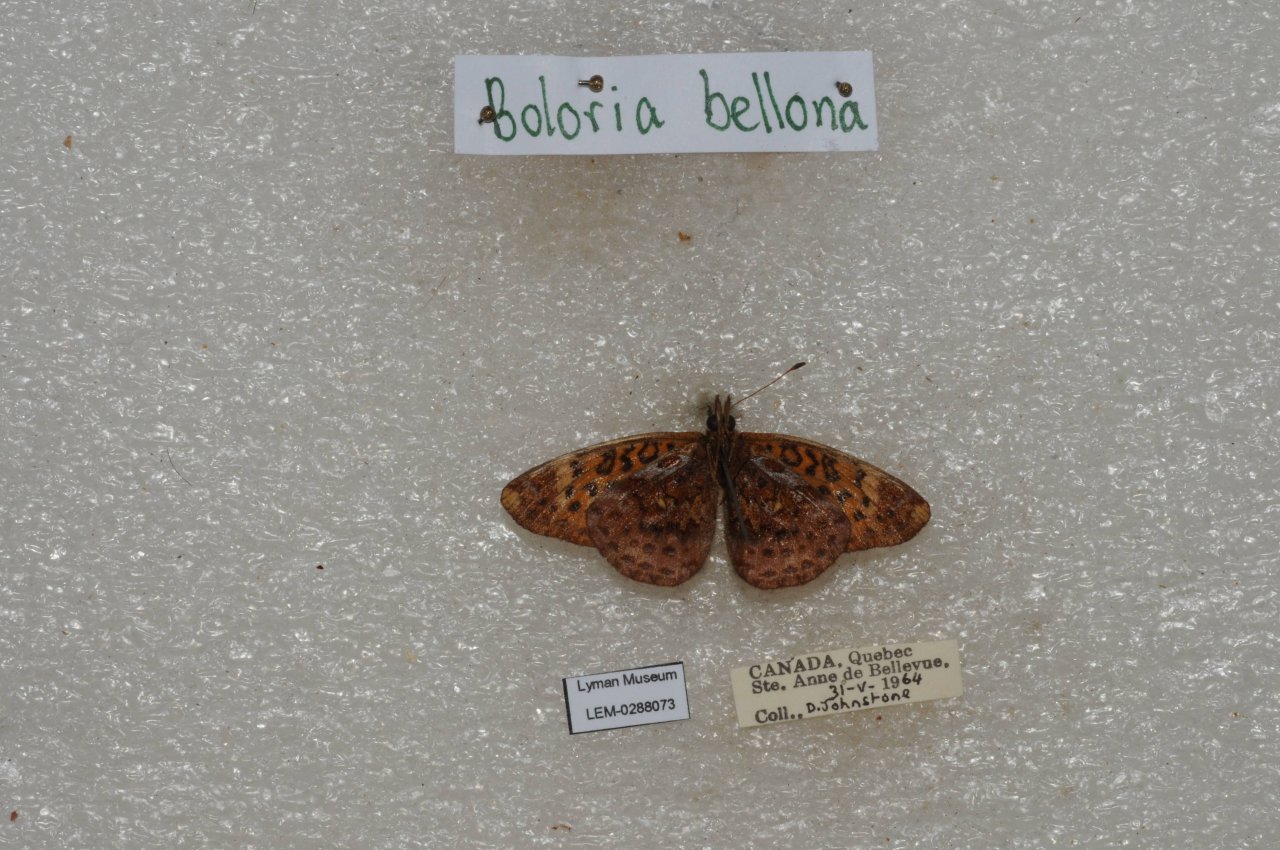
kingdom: Animalia
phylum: Arthropoda
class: Insecta
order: Lepidoptera
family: Nymphalidae
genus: Clossiana
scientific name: Clossiana toddi
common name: Meadow Fritillary
